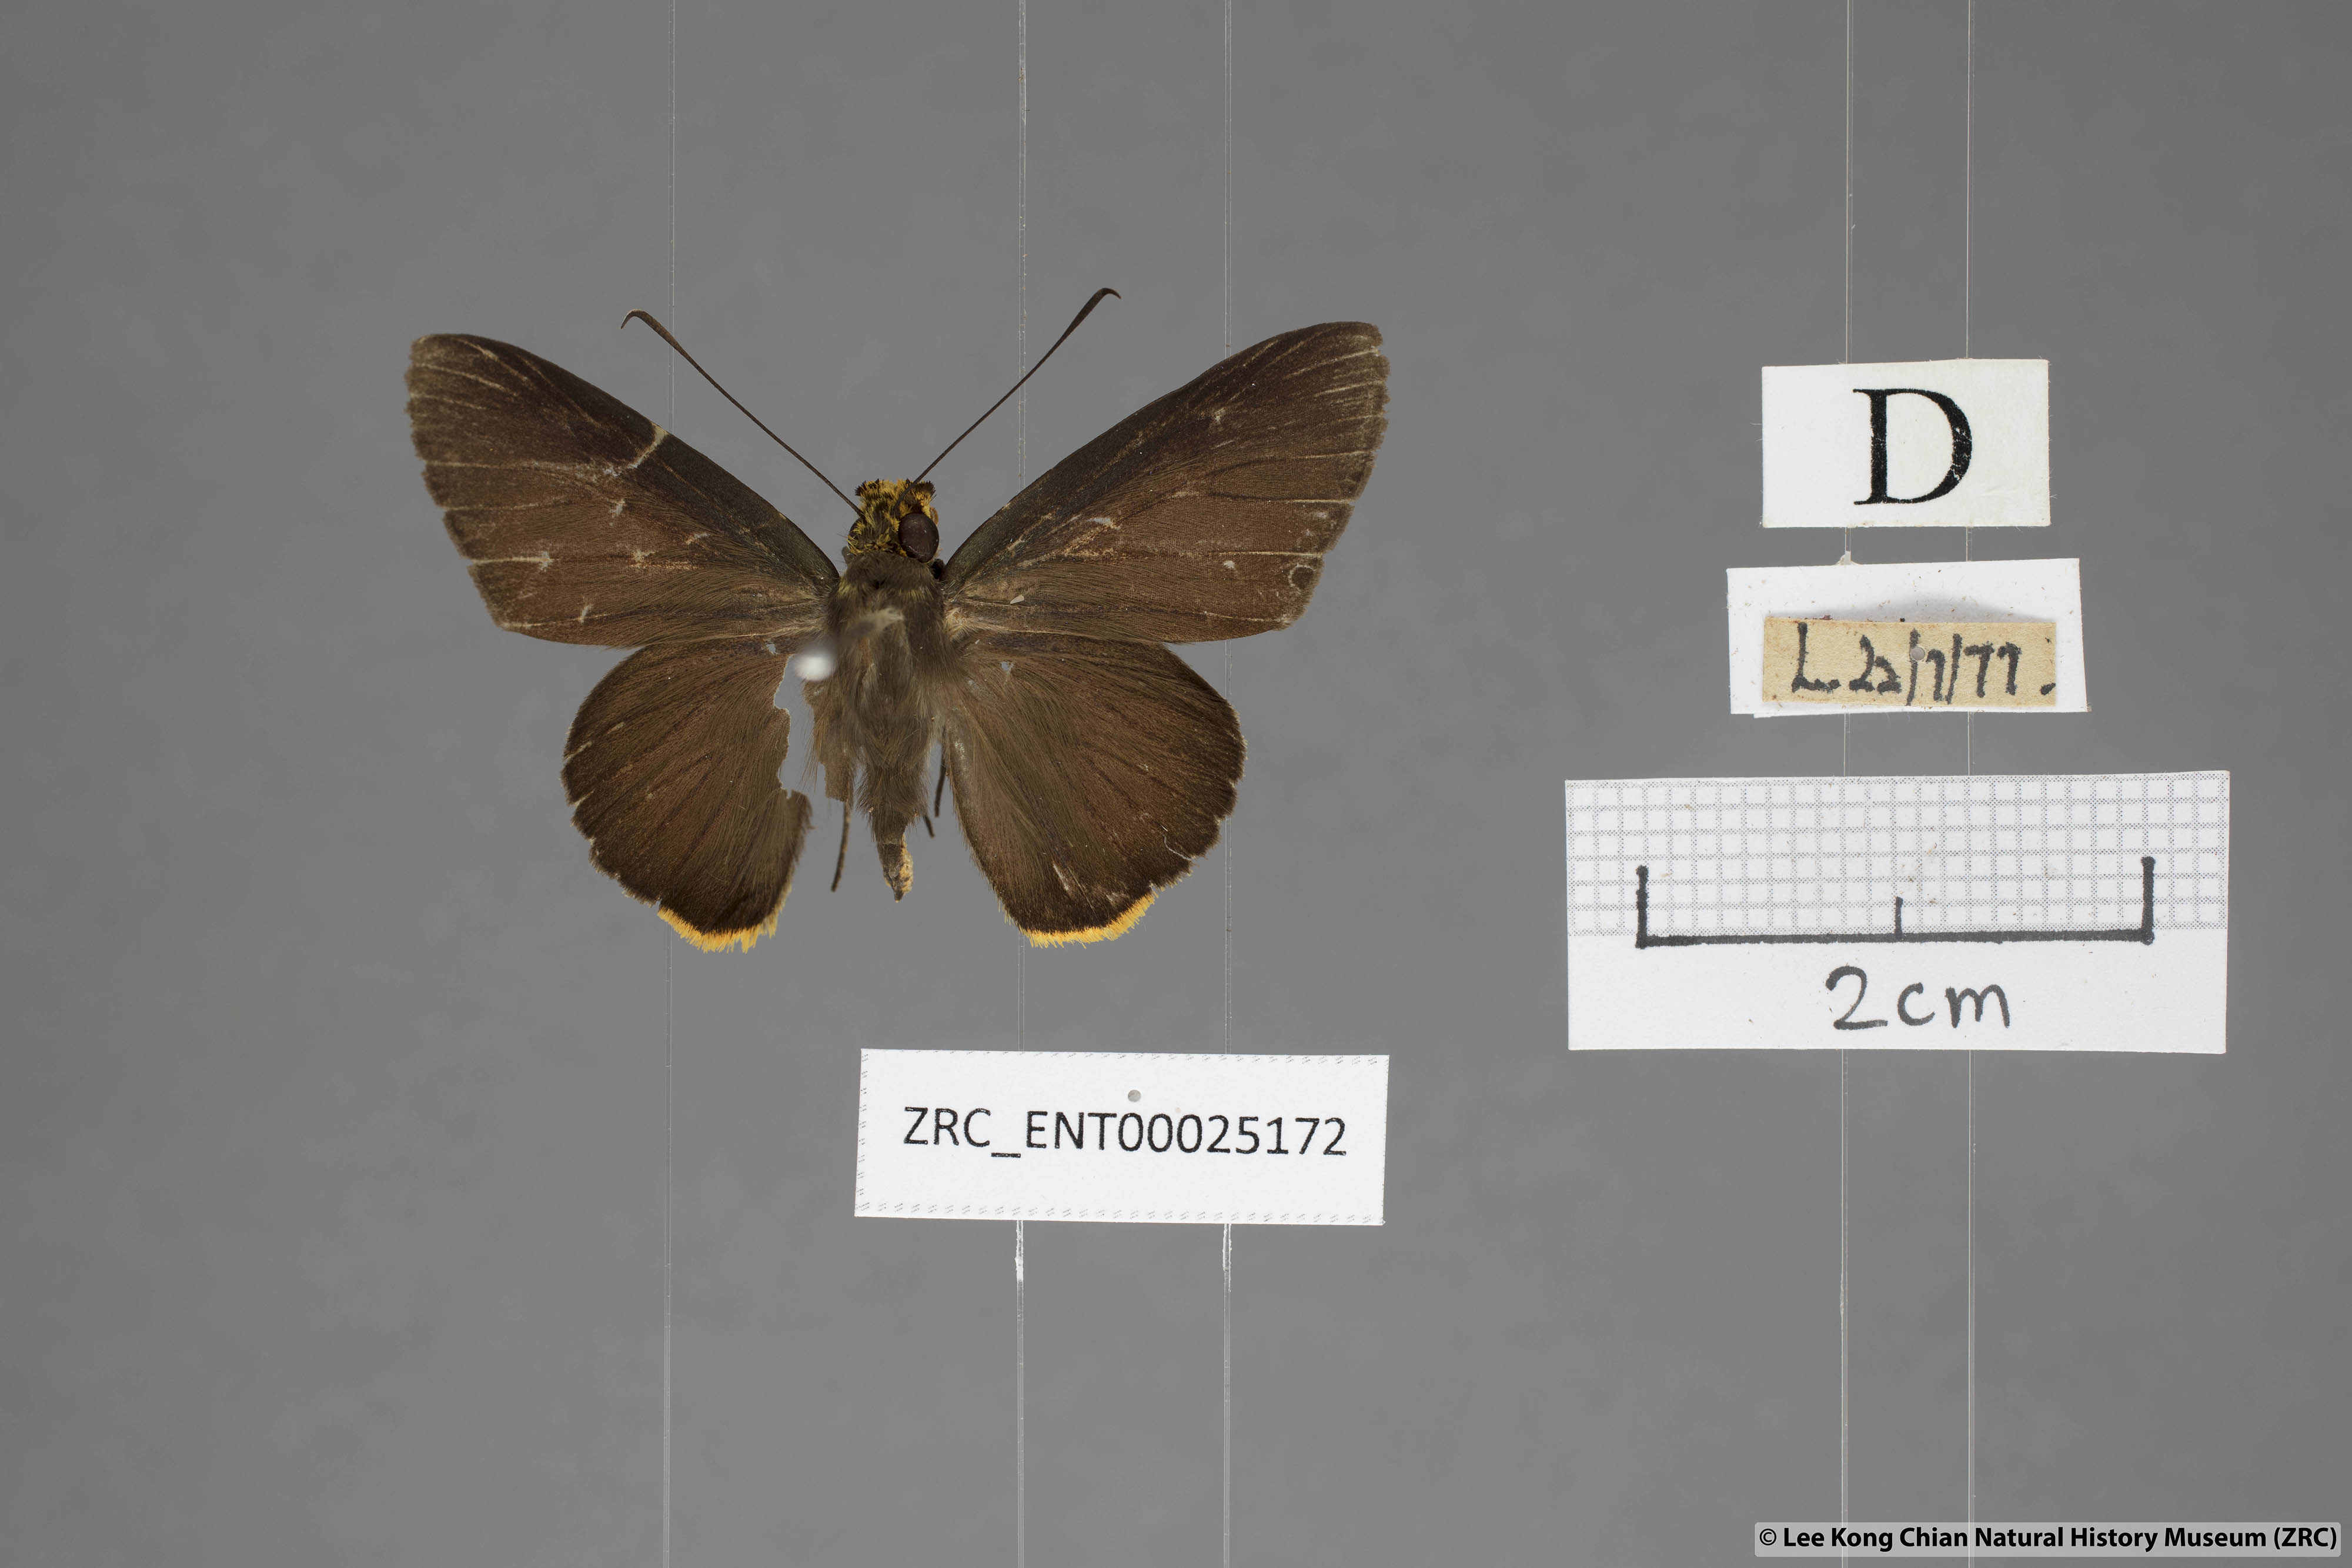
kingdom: Animalia
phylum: Arthropoda
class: Insecta
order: Lepidoptera
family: Hesperiidae
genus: Pirdana
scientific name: Pirdana hyela
